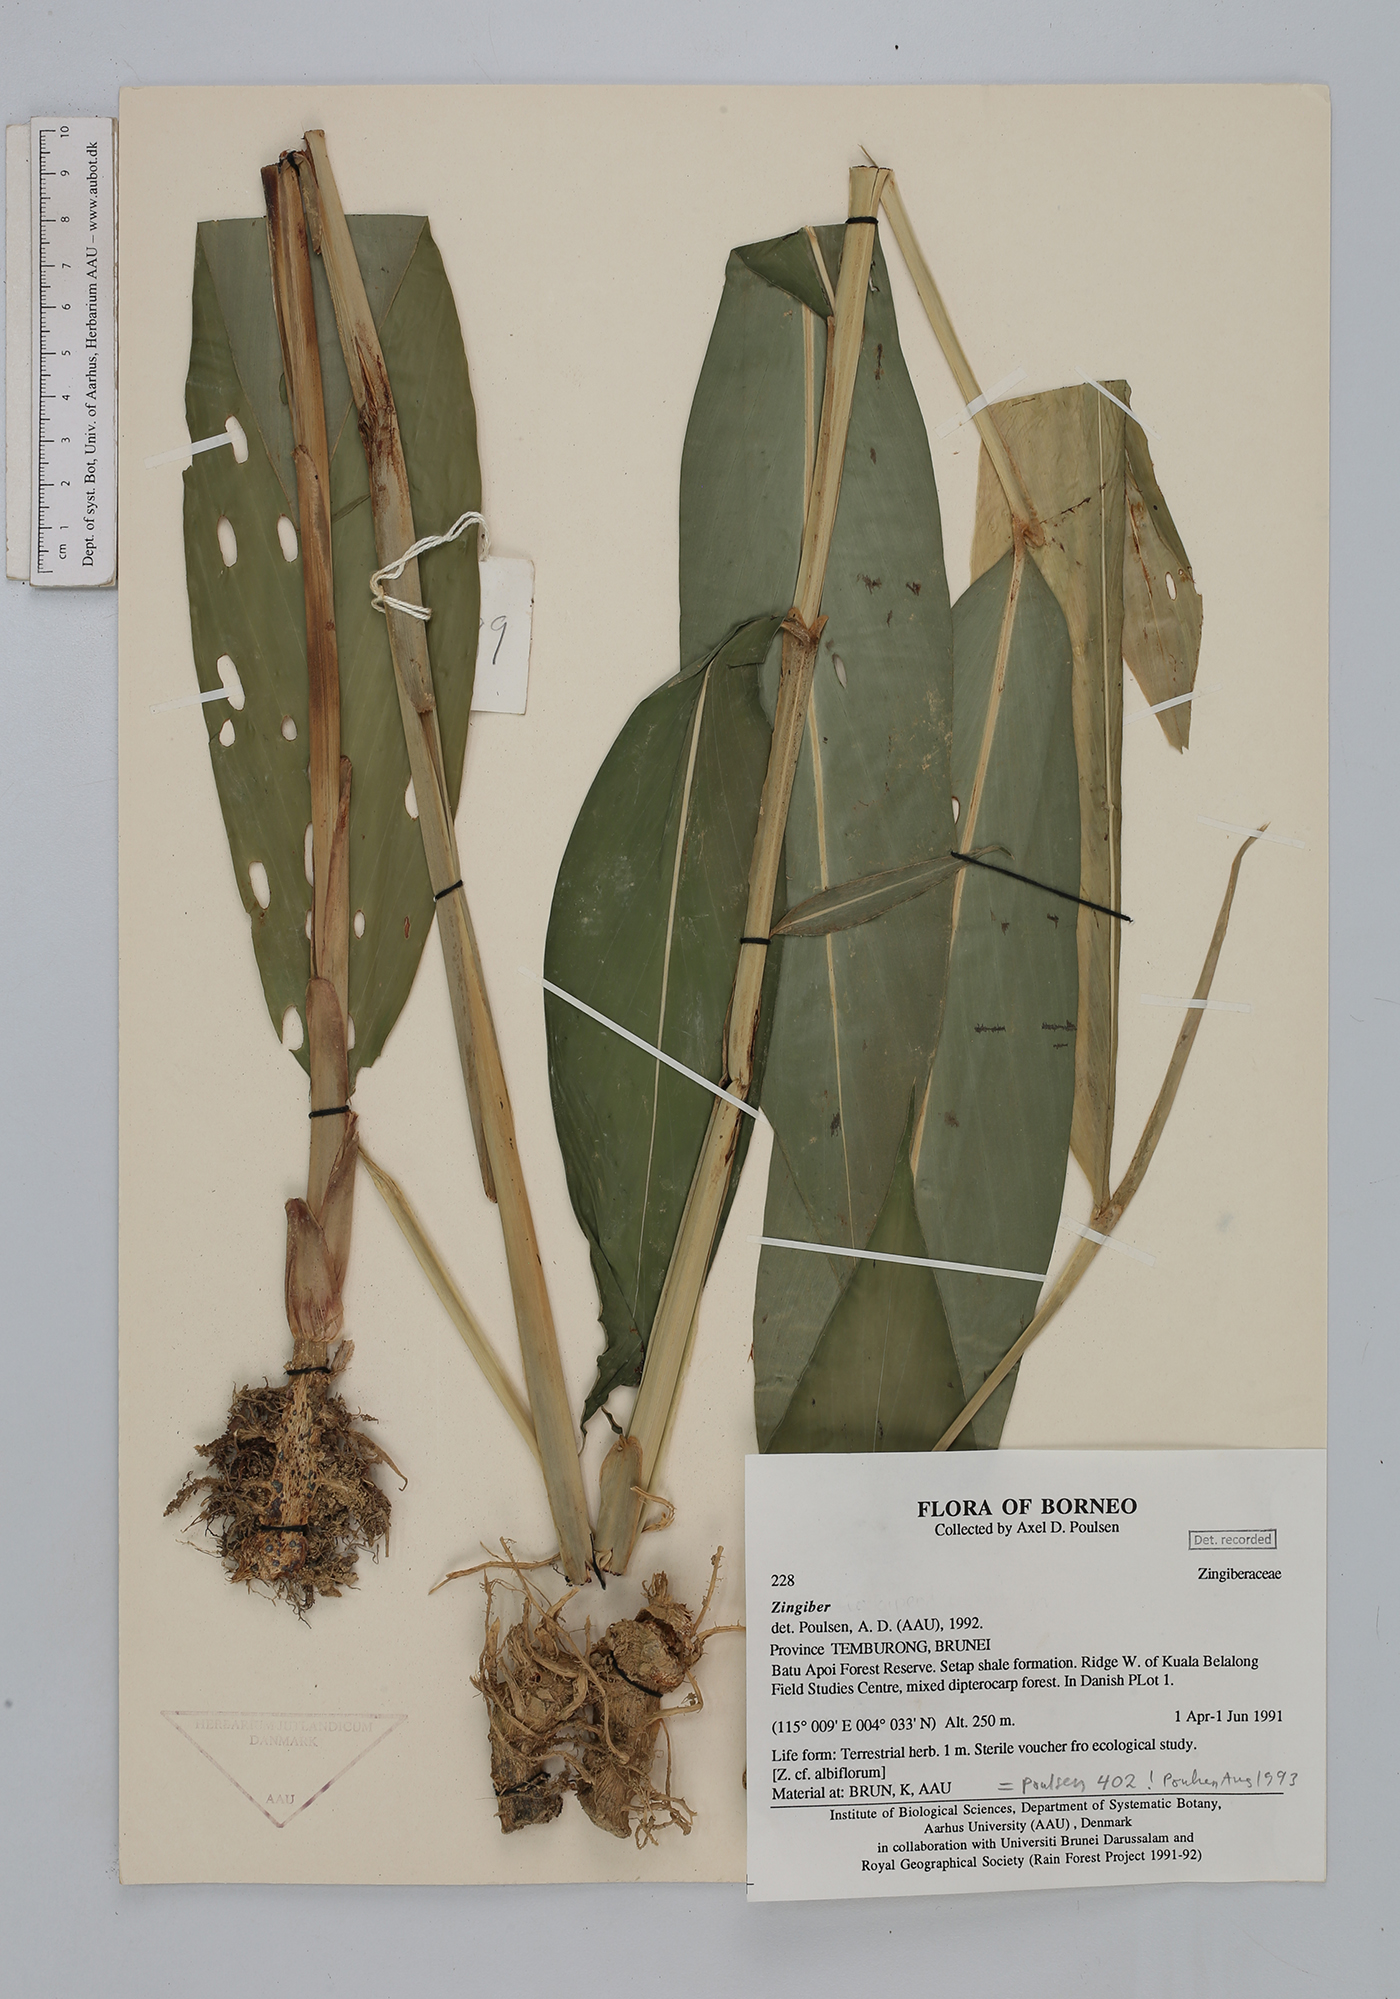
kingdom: Plantae
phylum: Tracheophyta
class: Liliopsida
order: Zingiberales
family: Zingiberaceae
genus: Zingiber
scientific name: Zingiber
